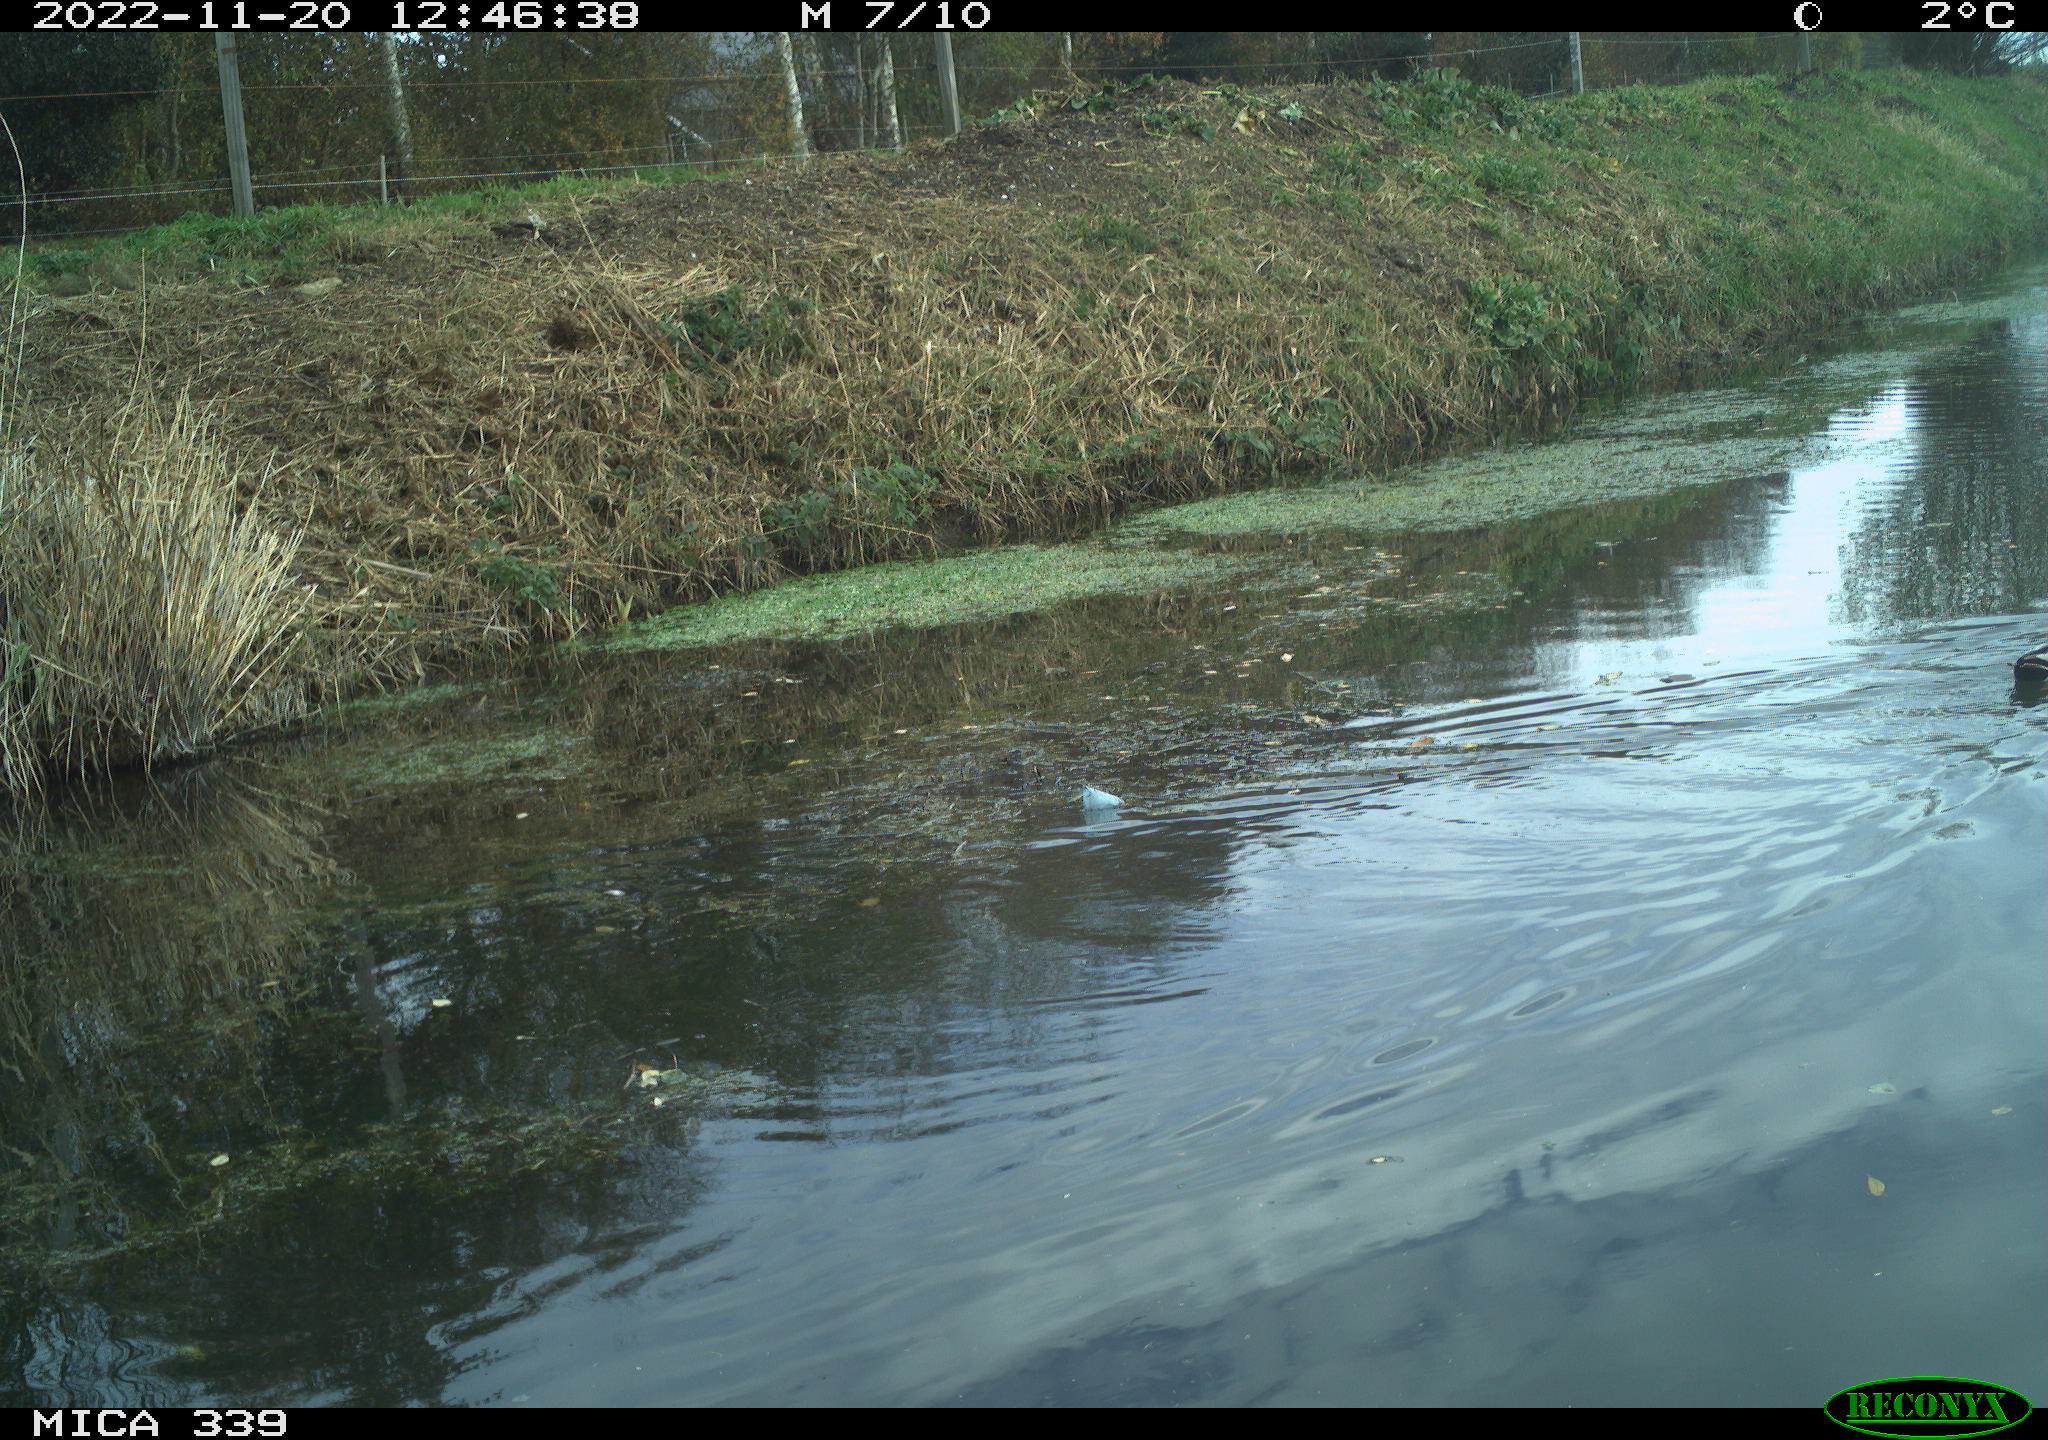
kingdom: Animalia
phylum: Chordata
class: Aves
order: Anseriformes
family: Anatidae
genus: Anas
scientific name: Anas platyrhynchos
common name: Mallard
